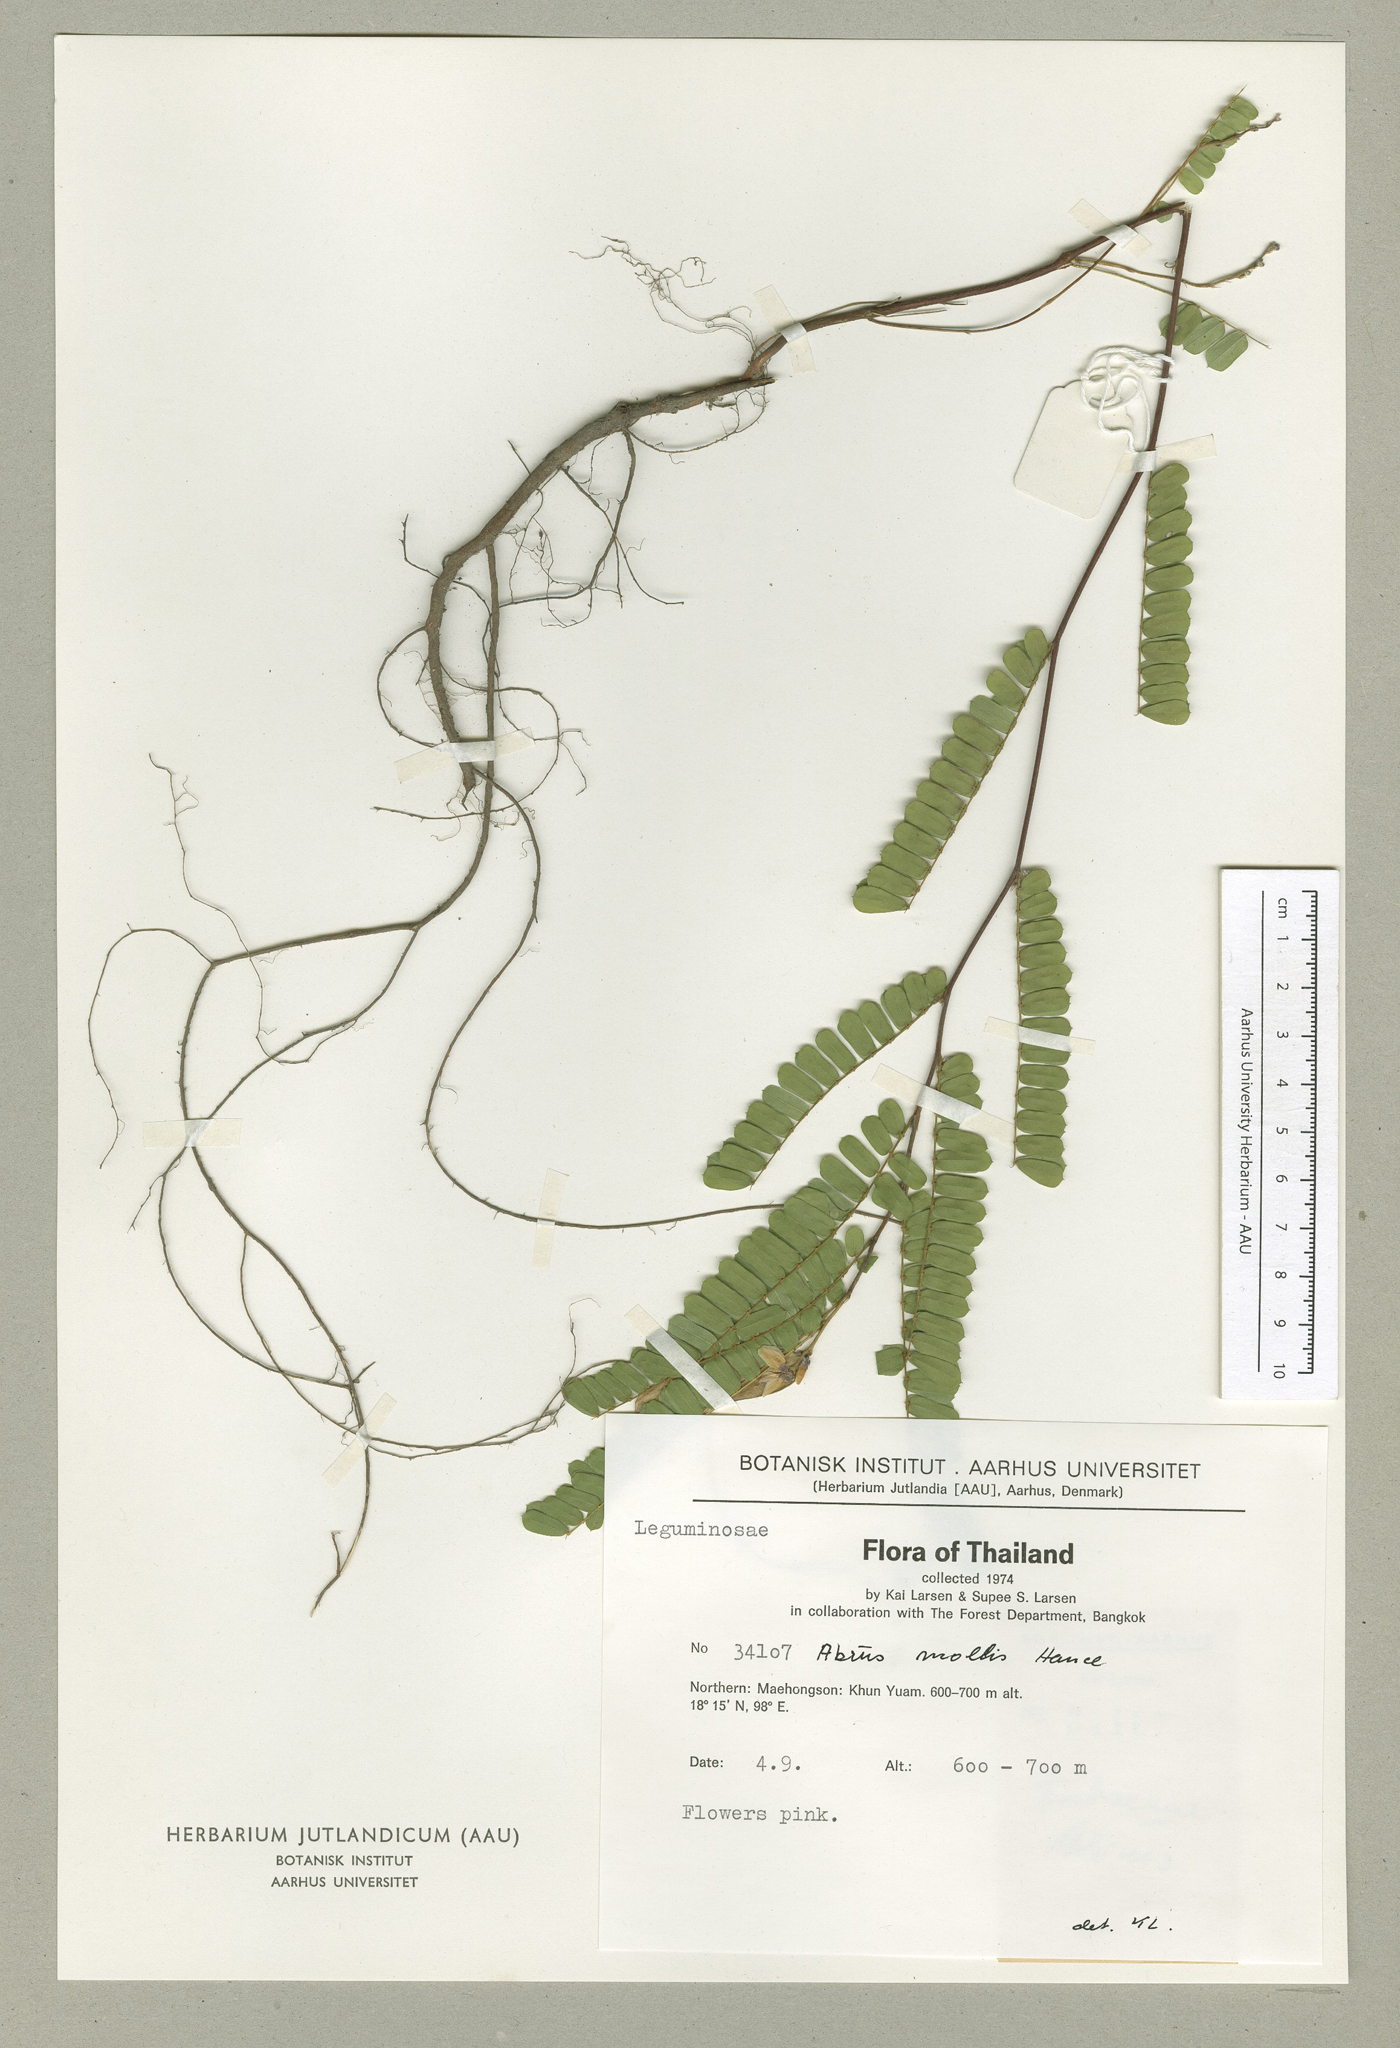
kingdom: Plantae
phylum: Tracheophyta
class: Magnoliopsida
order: Fabales
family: Fabaceae
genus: Abrus
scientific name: Abrus melanospermus
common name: Licorice-root
